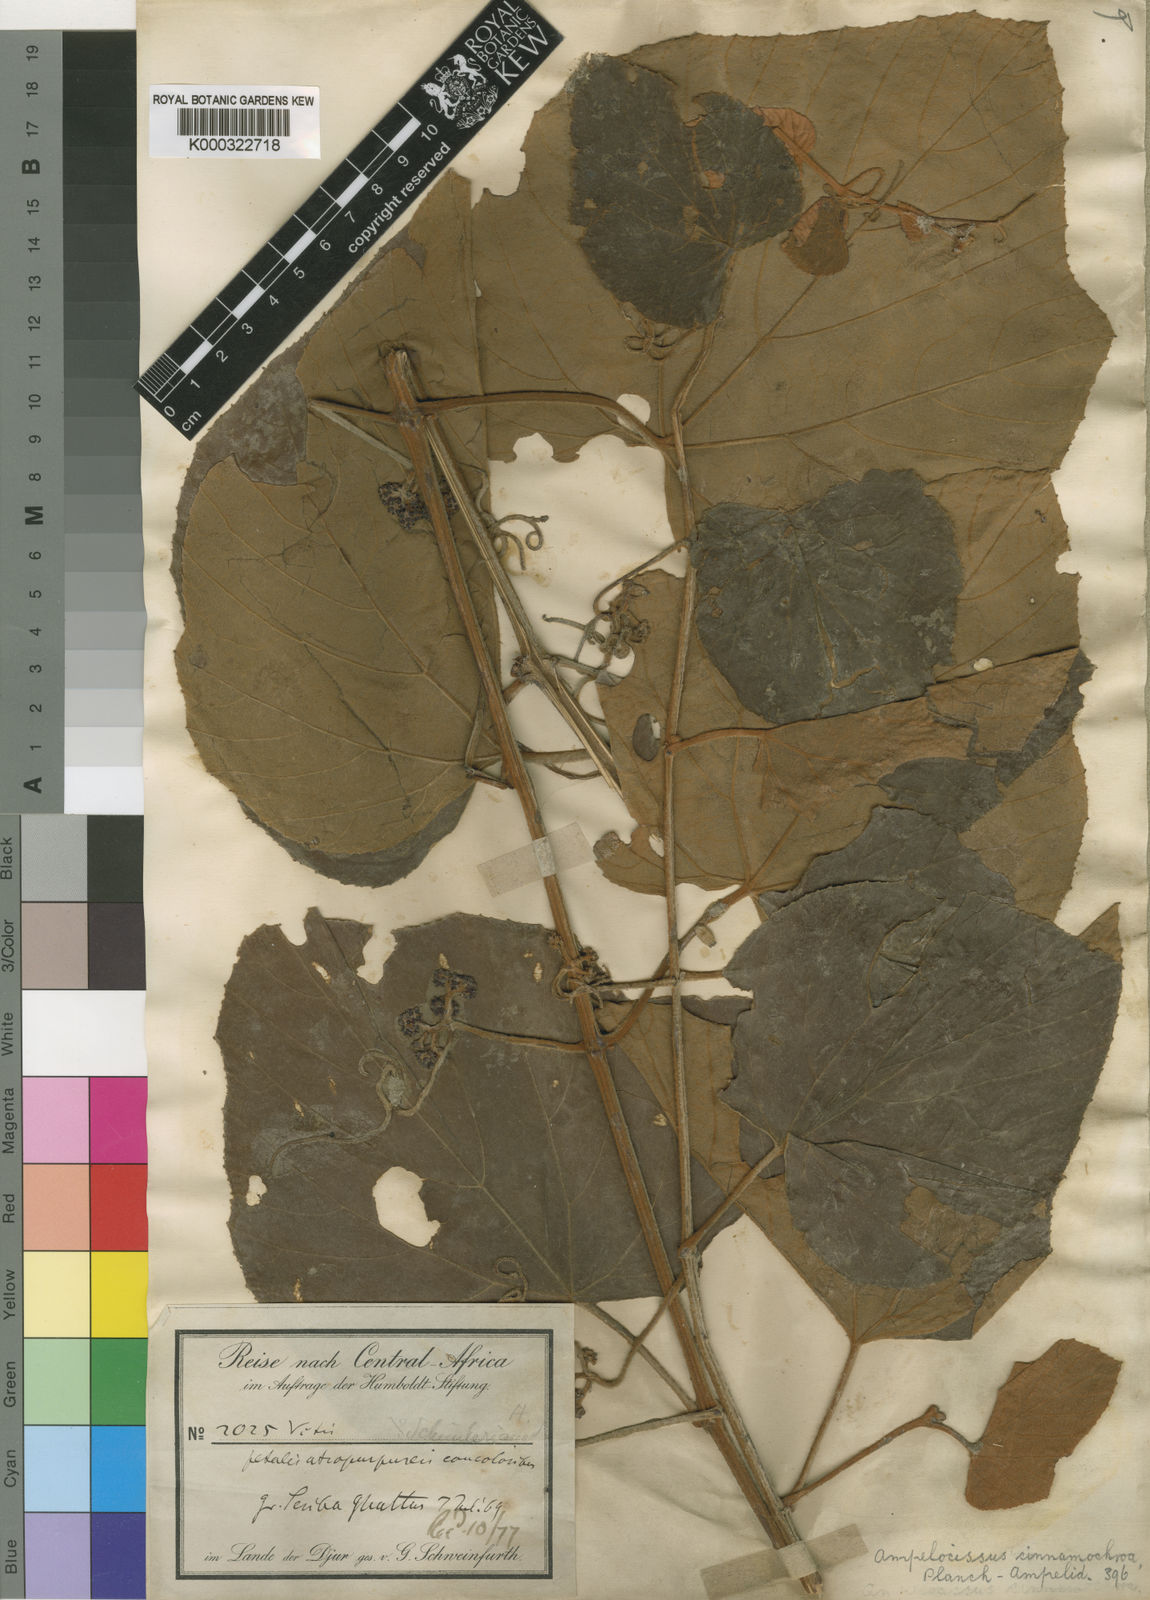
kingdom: Plantae
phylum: Tracheophyta
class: Magnoliopsida
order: Vitales
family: Vitaceae
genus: Ampelocissus
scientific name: Ampelocissus bombycina
